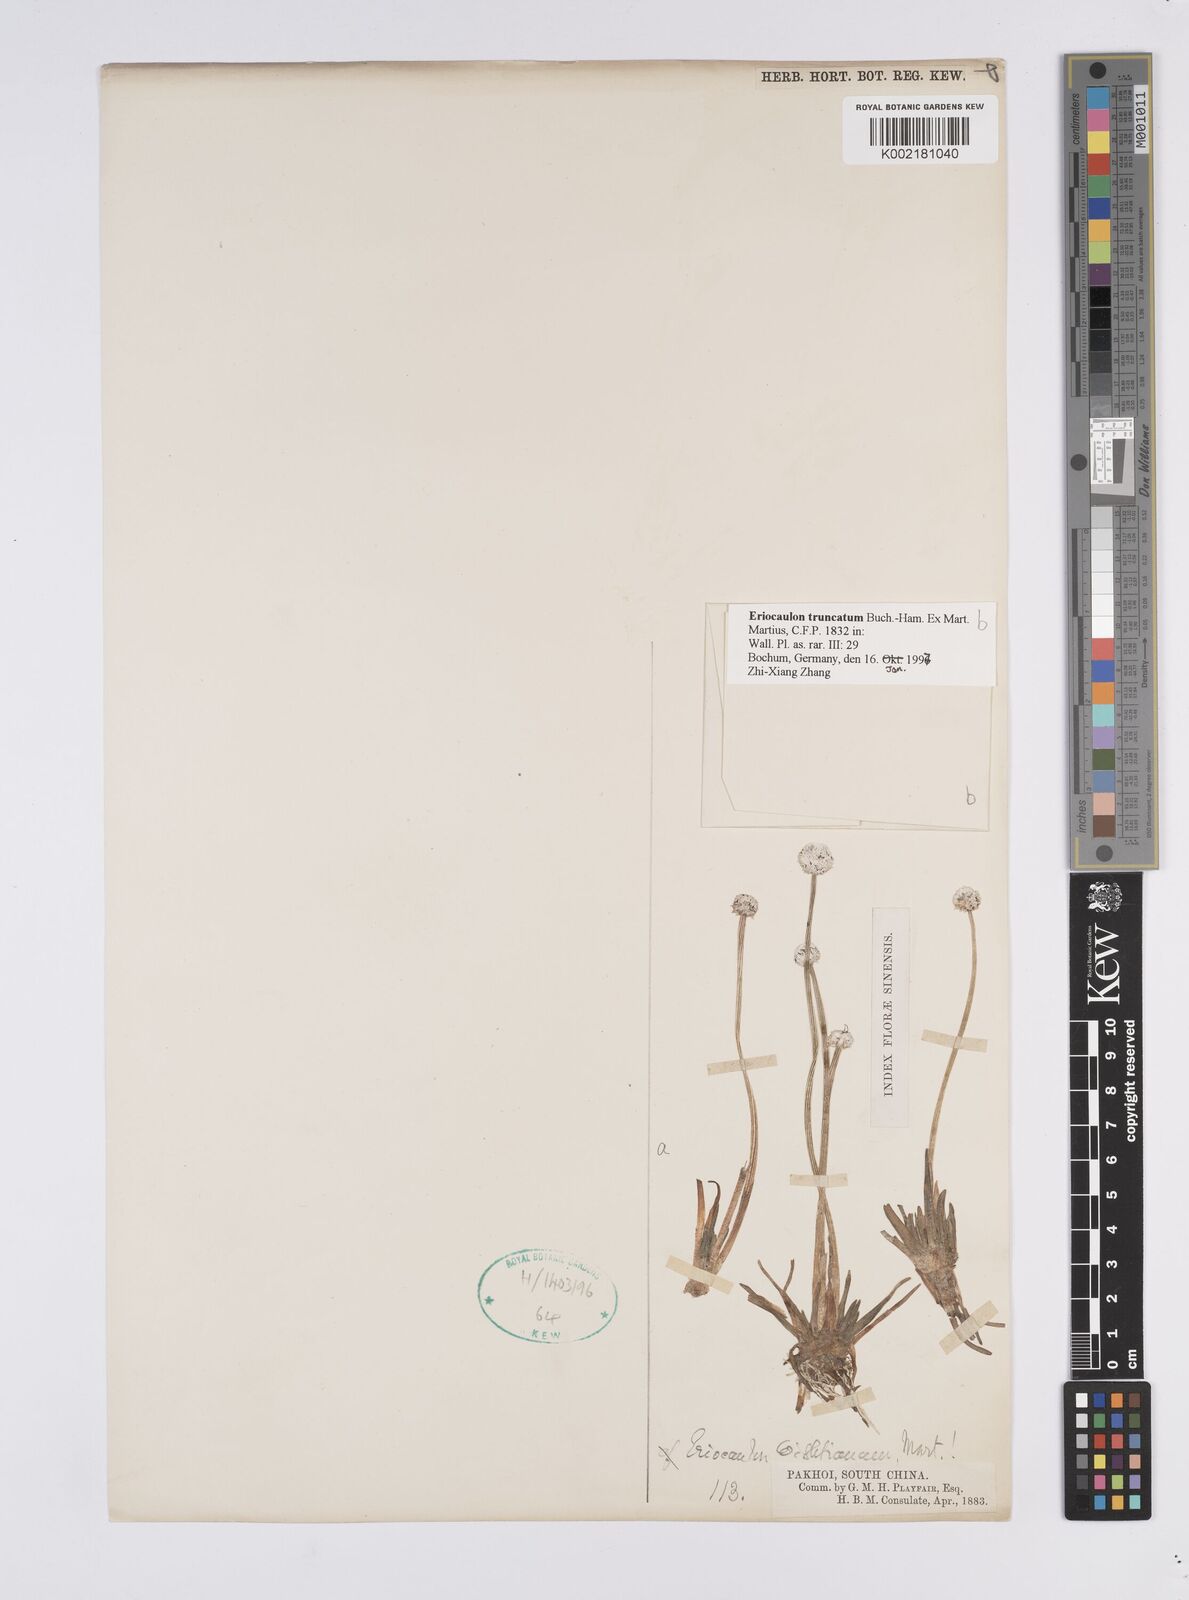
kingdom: Plantae
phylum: Tracheophyta
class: Liliopsida
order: Poales
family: Eriocaulaceae
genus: Eriocaulon
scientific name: Eriocaulon truncatum
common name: Short pipe-wort
